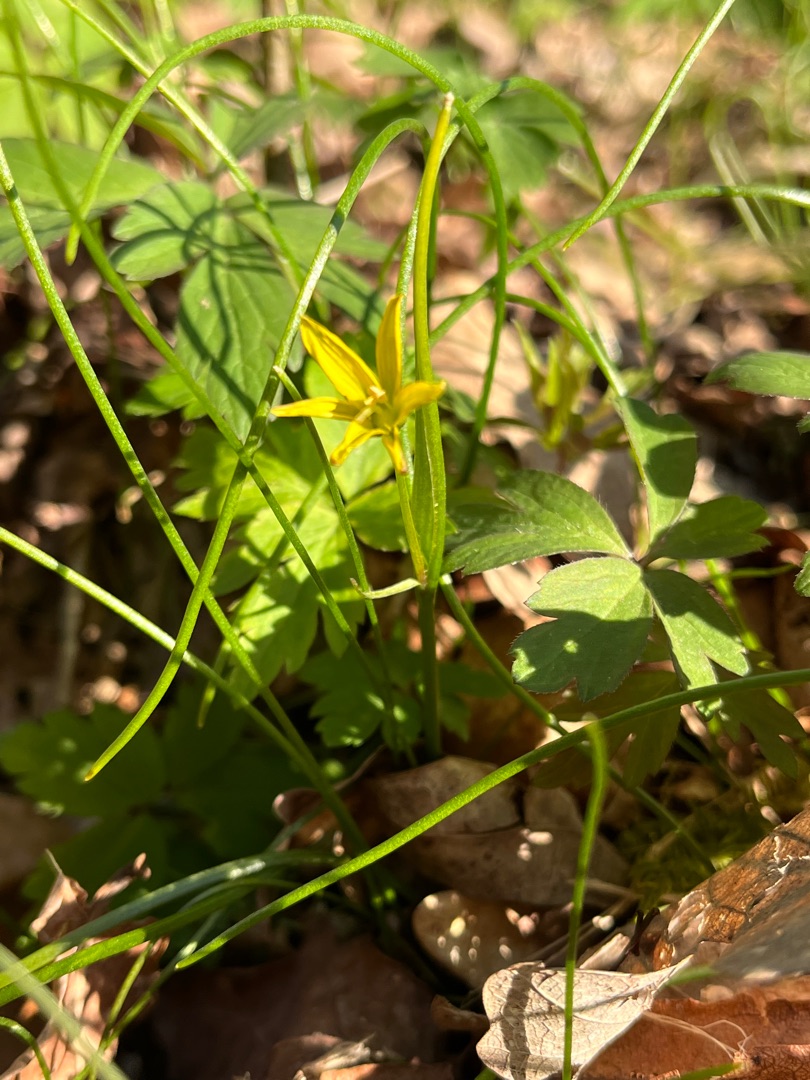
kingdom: Plantae
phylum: Tracheophyta
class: Liliopsida
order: Liliales
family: Liliaceae
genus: Gagea
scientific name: Gagea spathacea
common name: Hylster-guldstjerne
